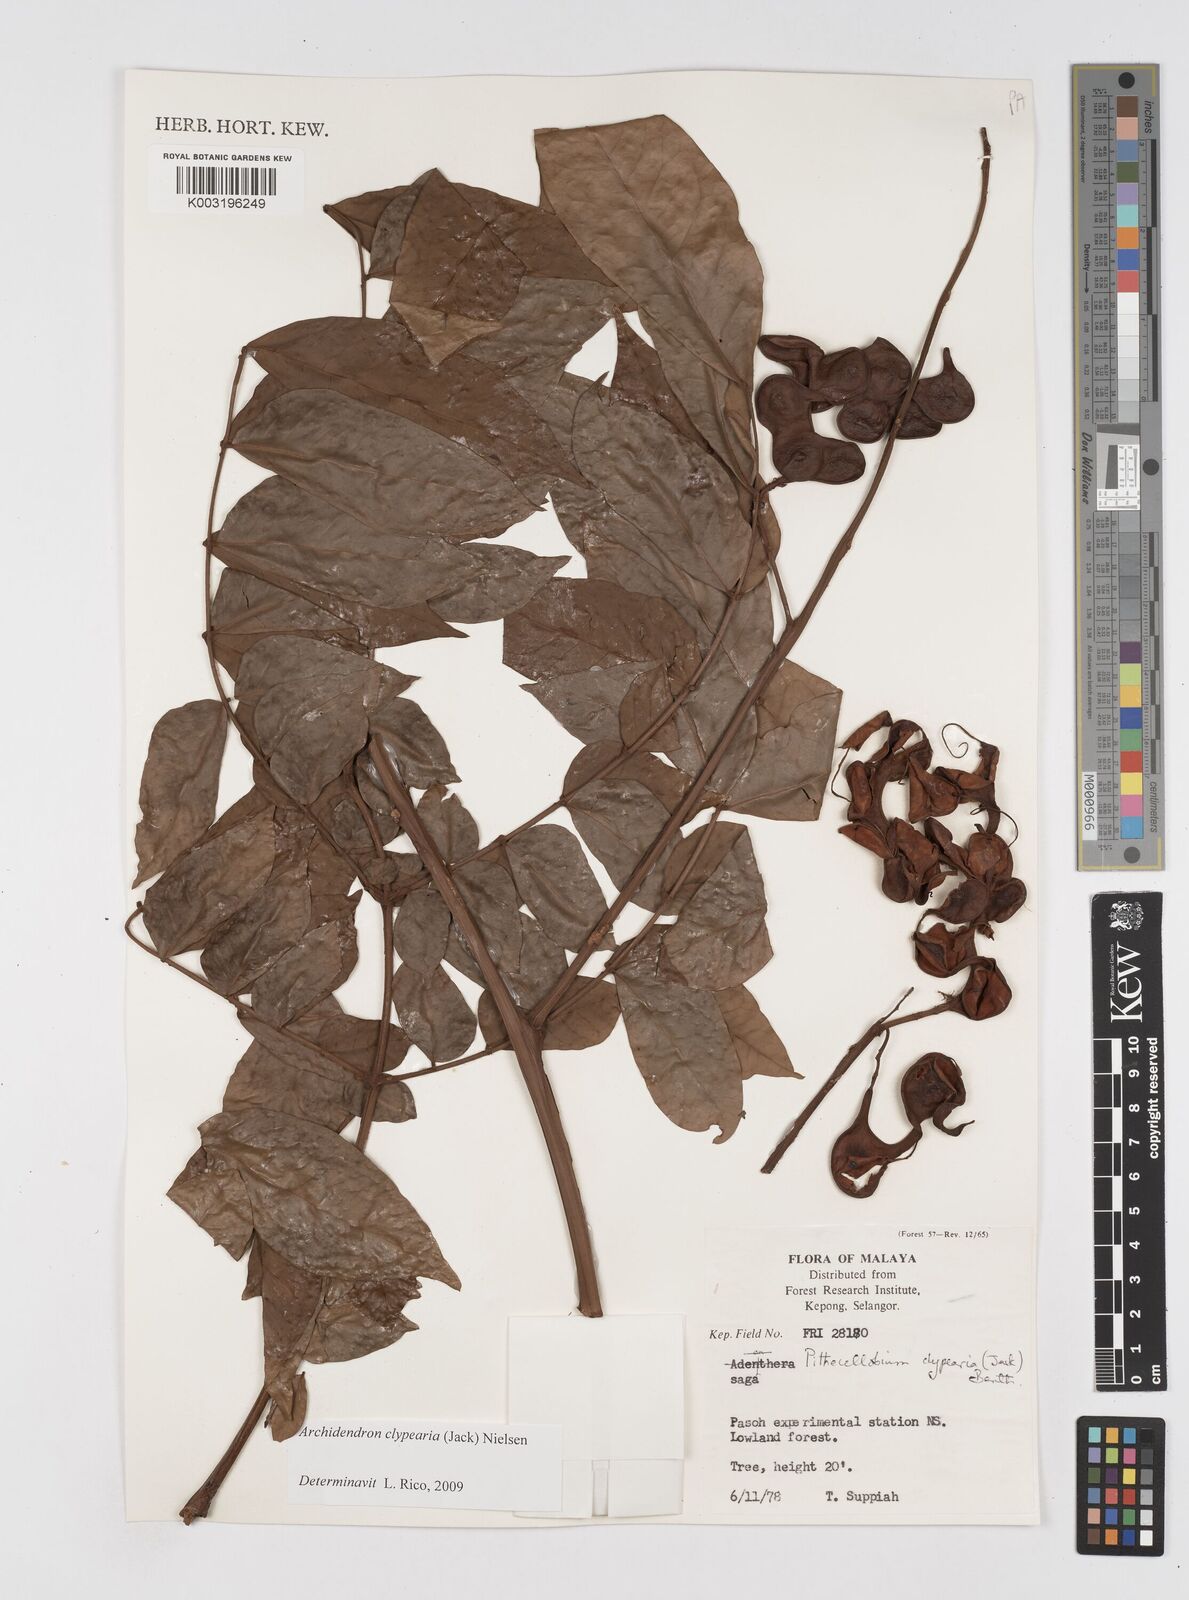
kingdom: Plantae
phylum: Tracheophyta
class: Magnoliopsida
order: Fabales
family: Fabaceae
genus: Archidendron
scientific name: Archidendron clypearia
